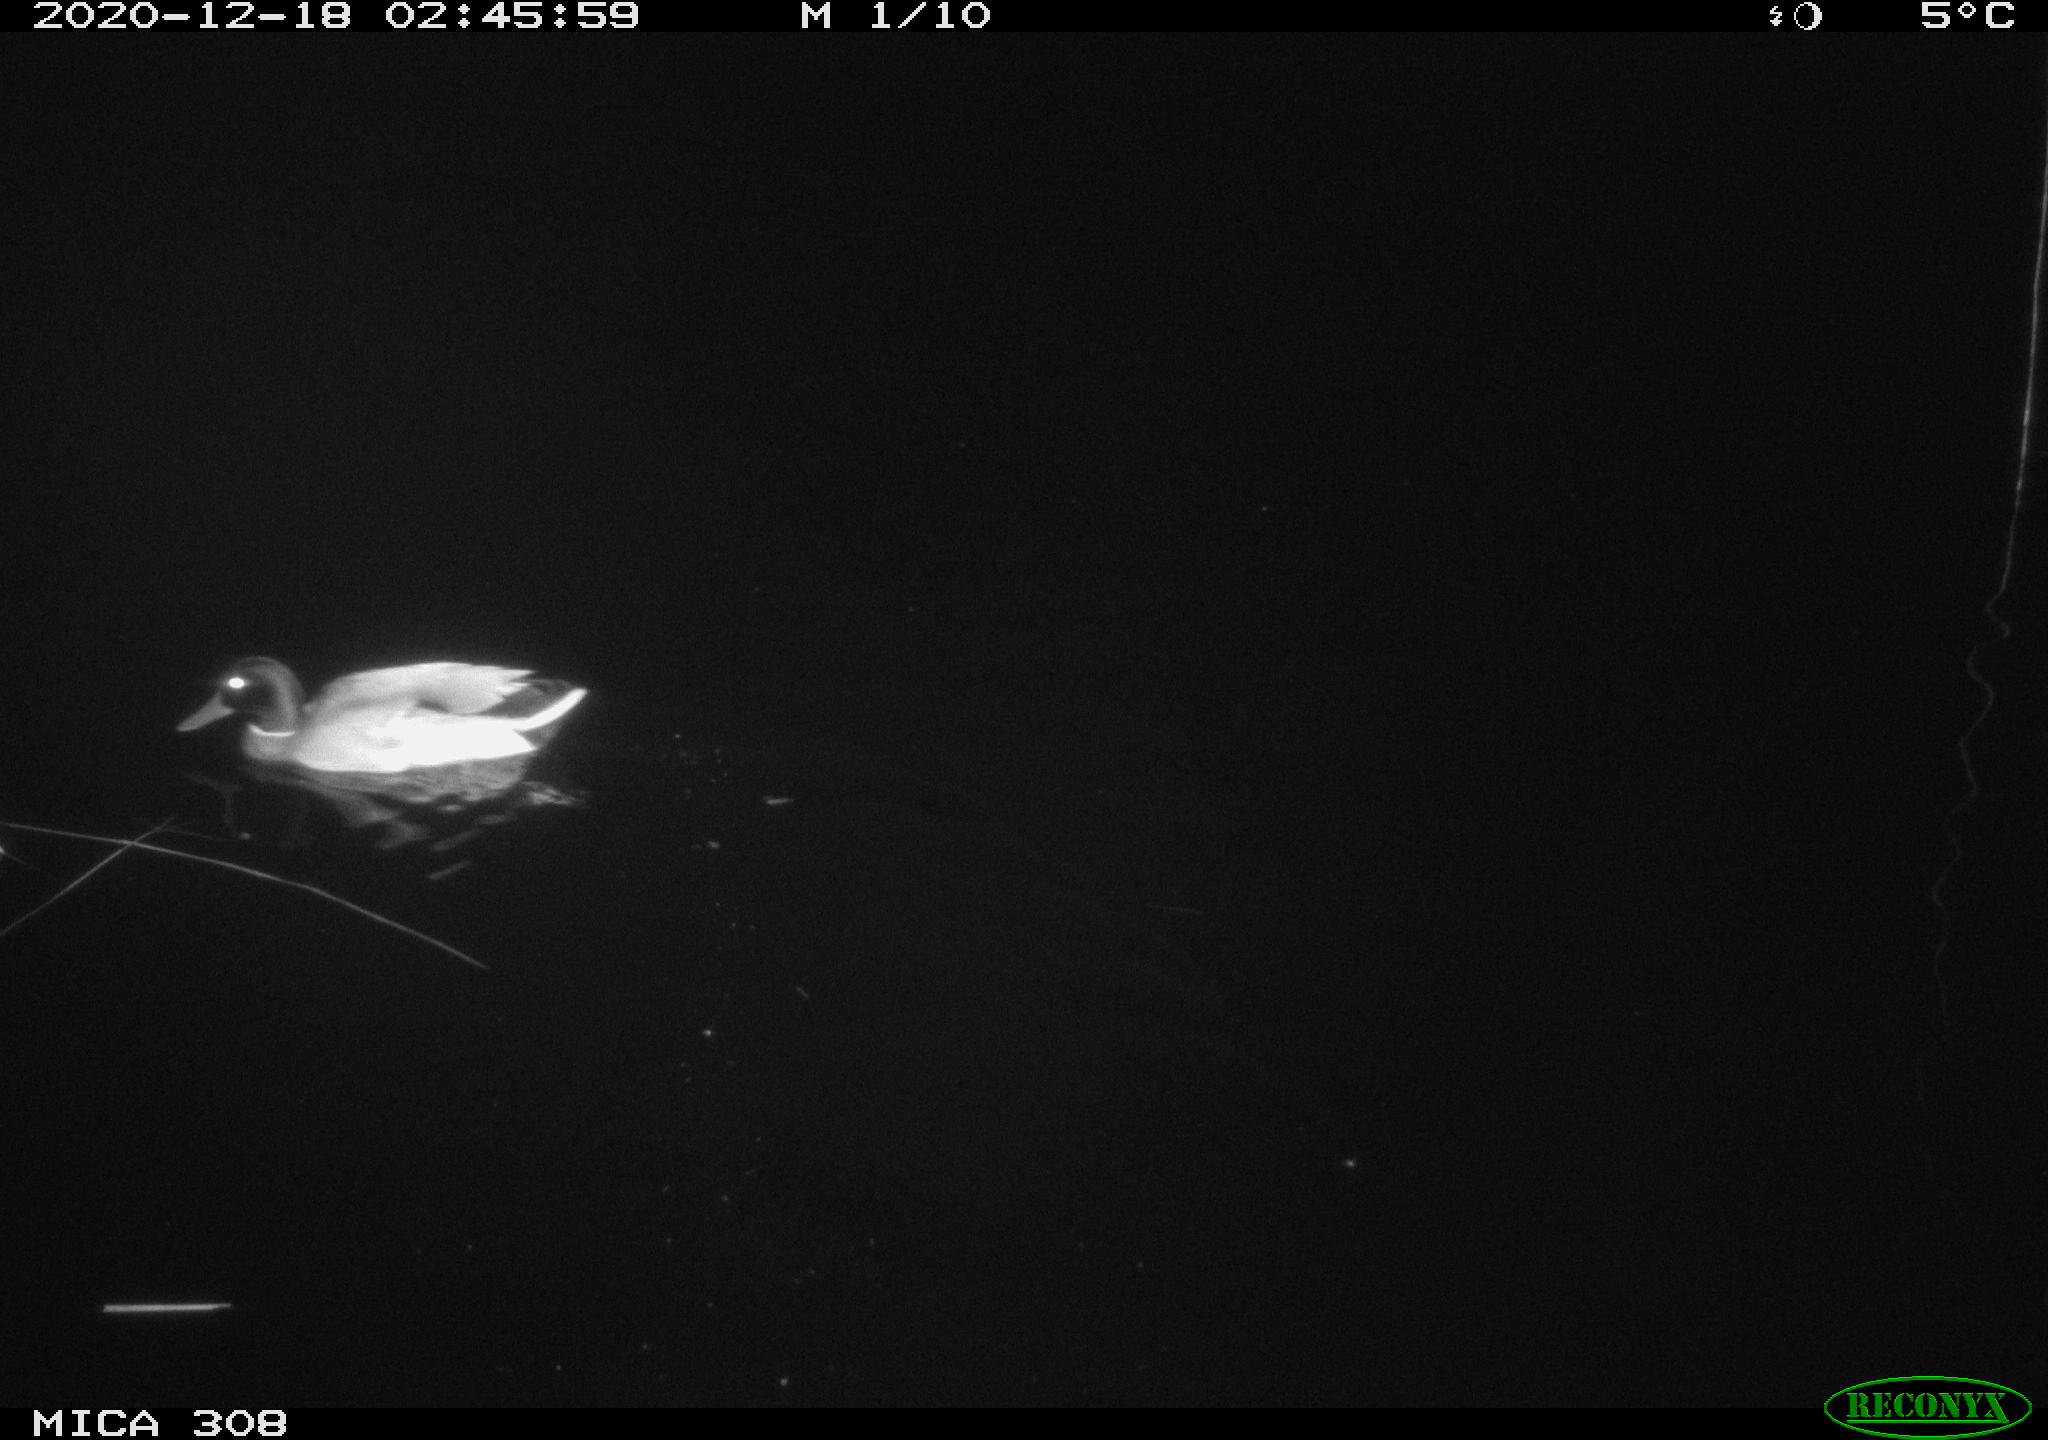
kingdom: Animalia
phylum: Chordata
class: Aves
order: Anseriformes
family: Anatidae
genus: Anas
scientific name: Anas platyrhynchos
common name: Mallard
